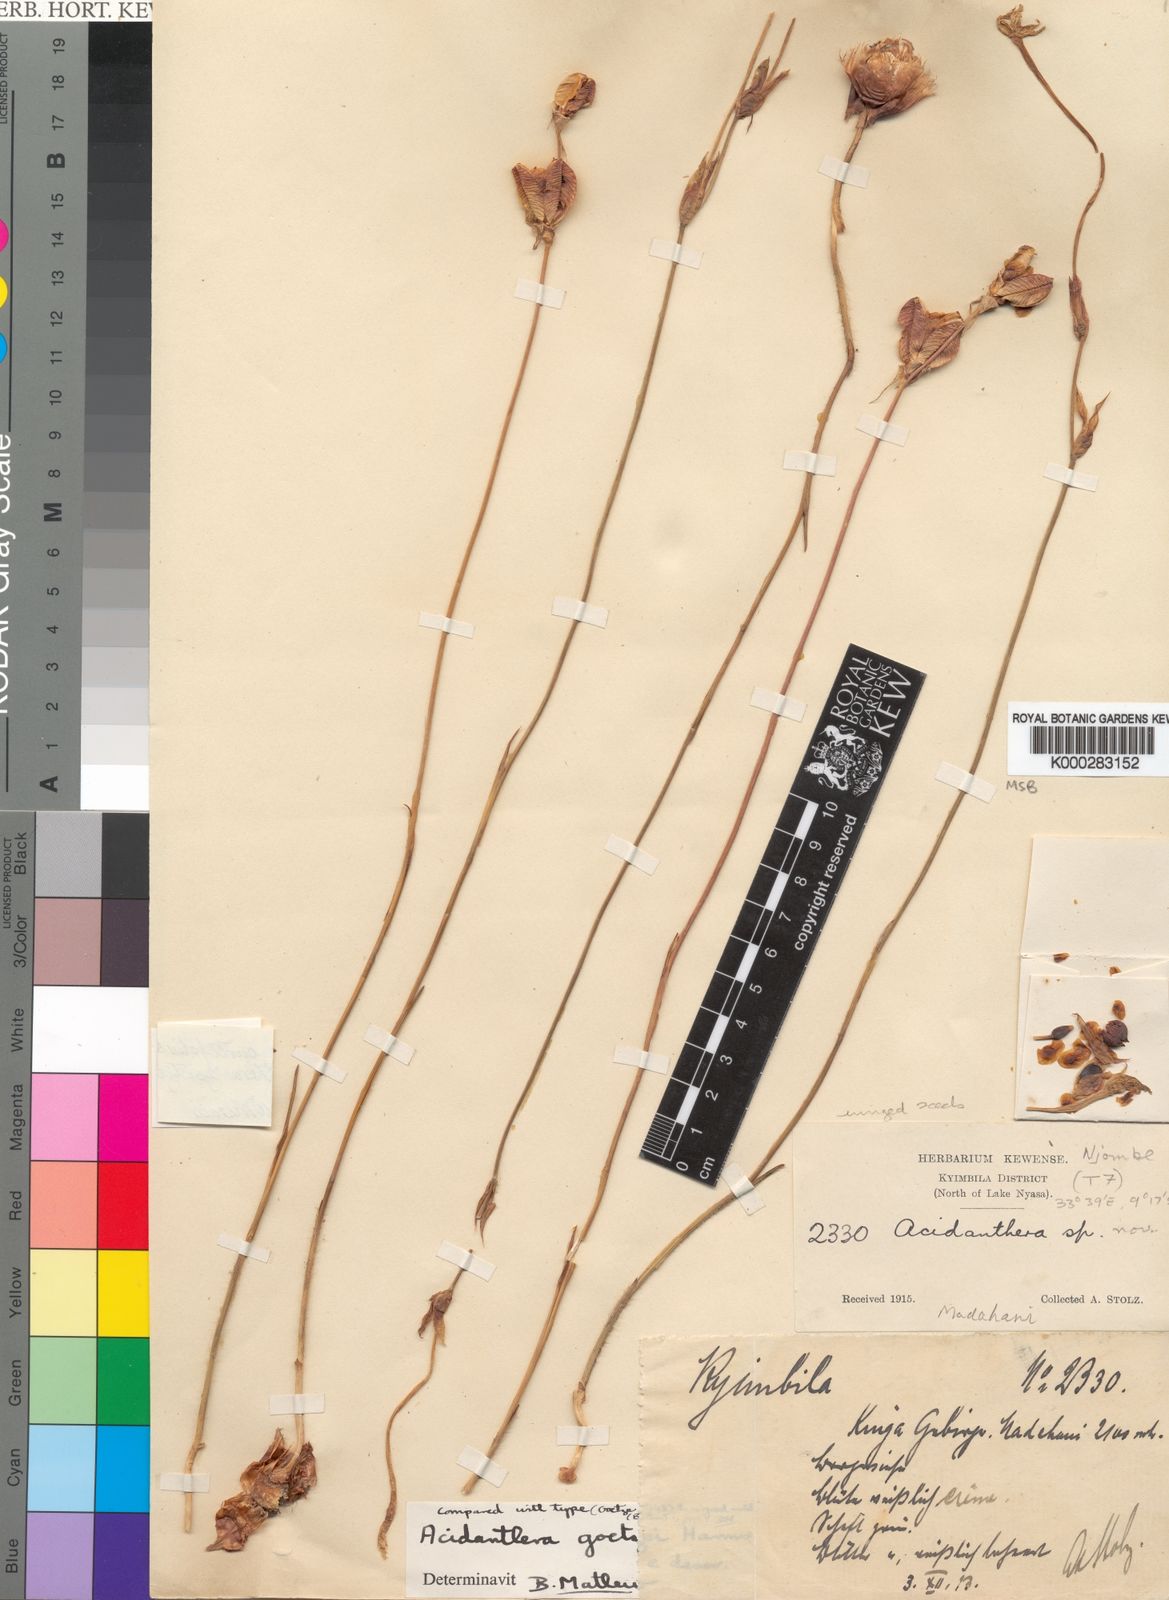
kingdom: Plantae
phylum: Tracheophyta
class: Liliopsida
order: Asparagales
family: Iridaceae
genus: Gladiolus
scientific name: Gladiolus curtifolius
